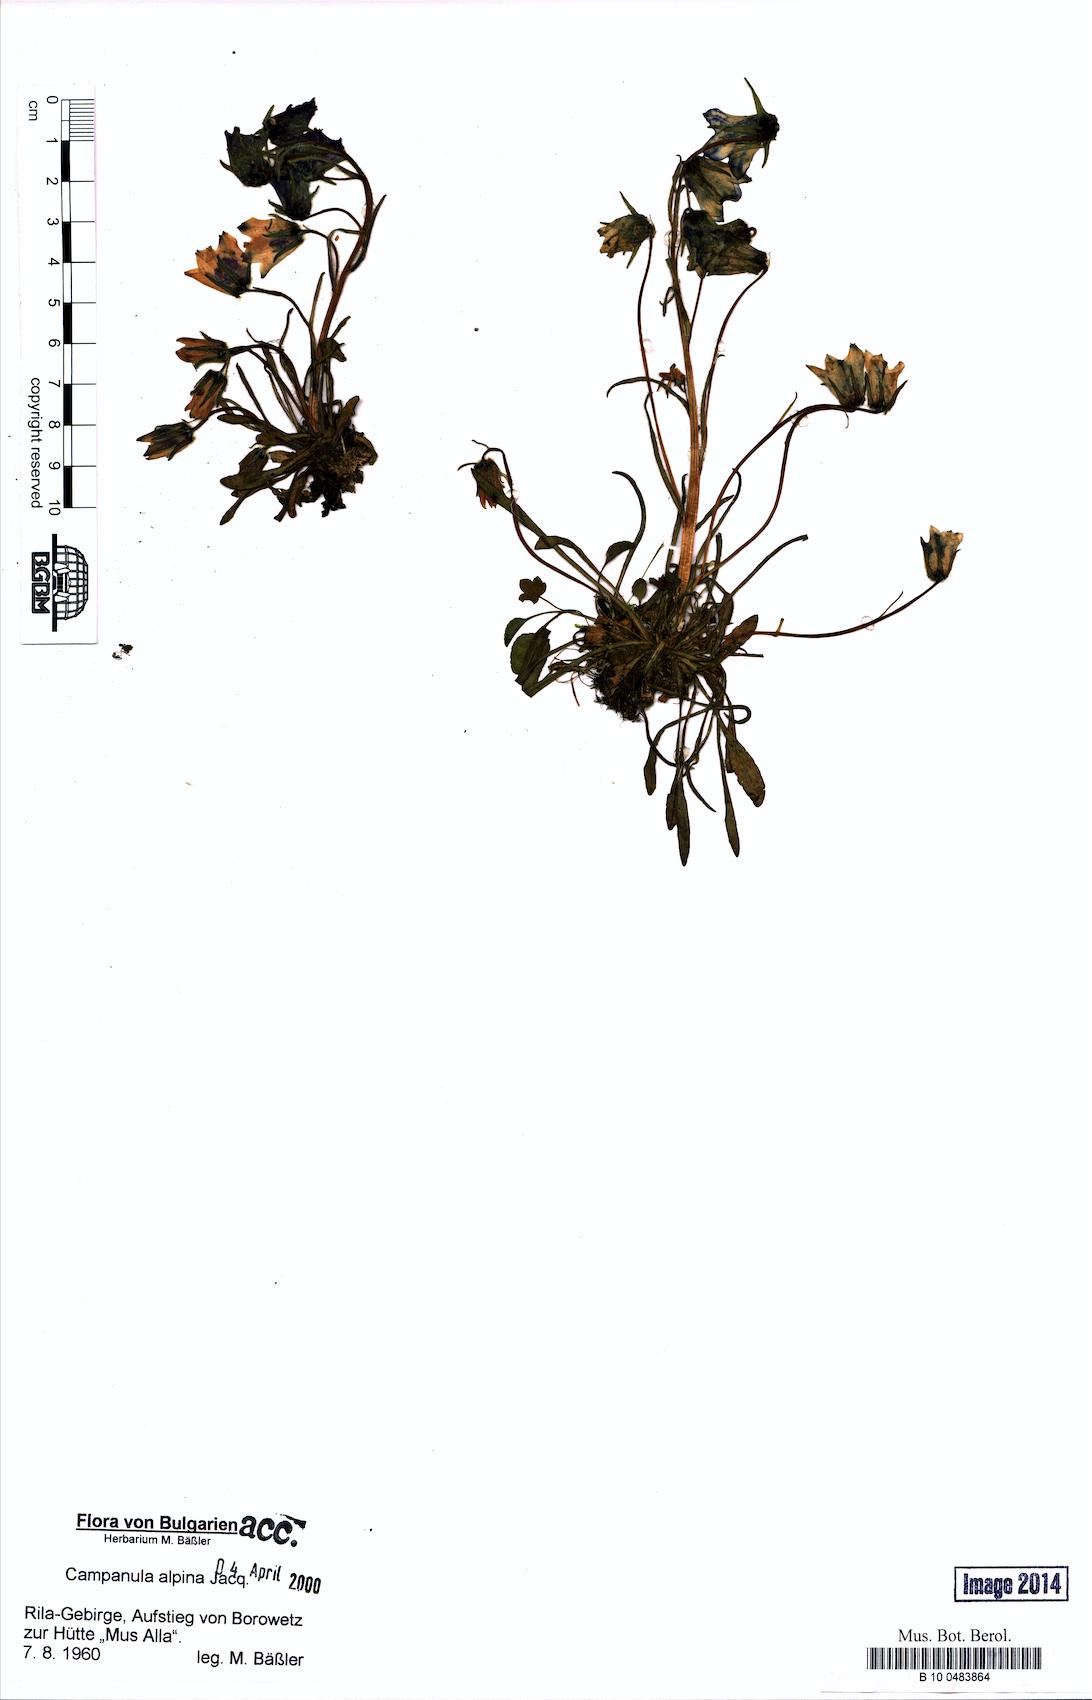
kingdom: Plantae
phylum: Tracheophyta
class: Magnoliopsida
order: Asterales
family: Campanulaceae
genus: Campanula
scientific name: Campanula alpina
